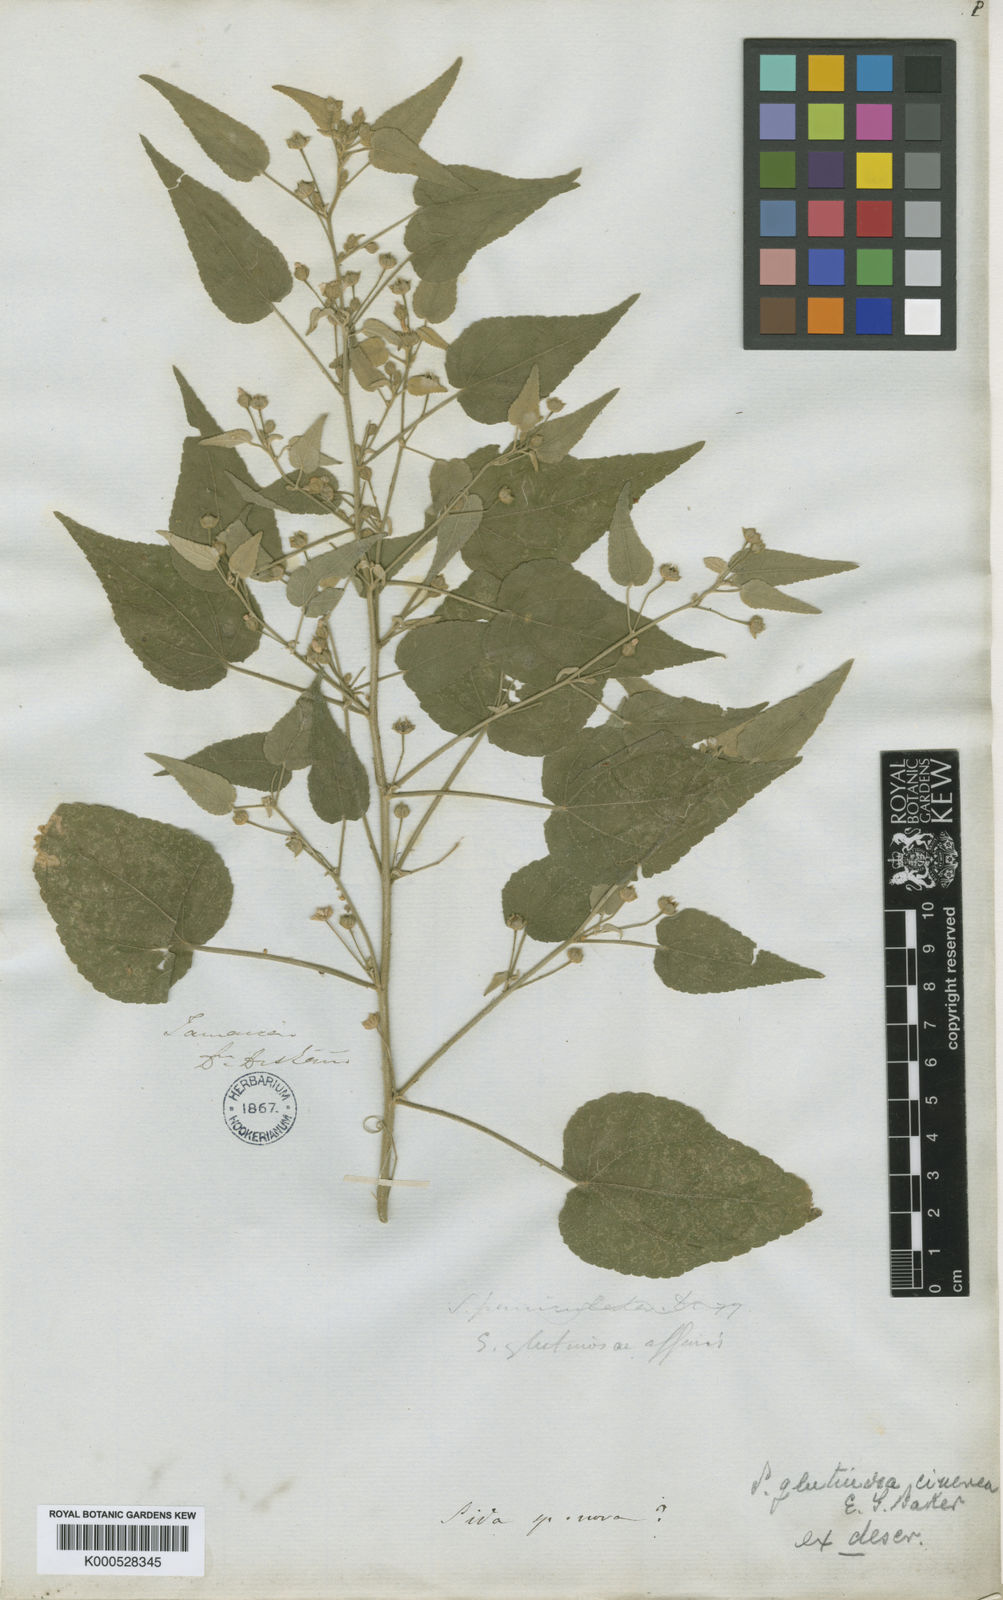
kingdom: Plantae
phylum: Tracheophyta
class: Magnoliopsida
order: Malvales
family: Malvaceae
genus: Sida
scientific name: Sida glutinosa
